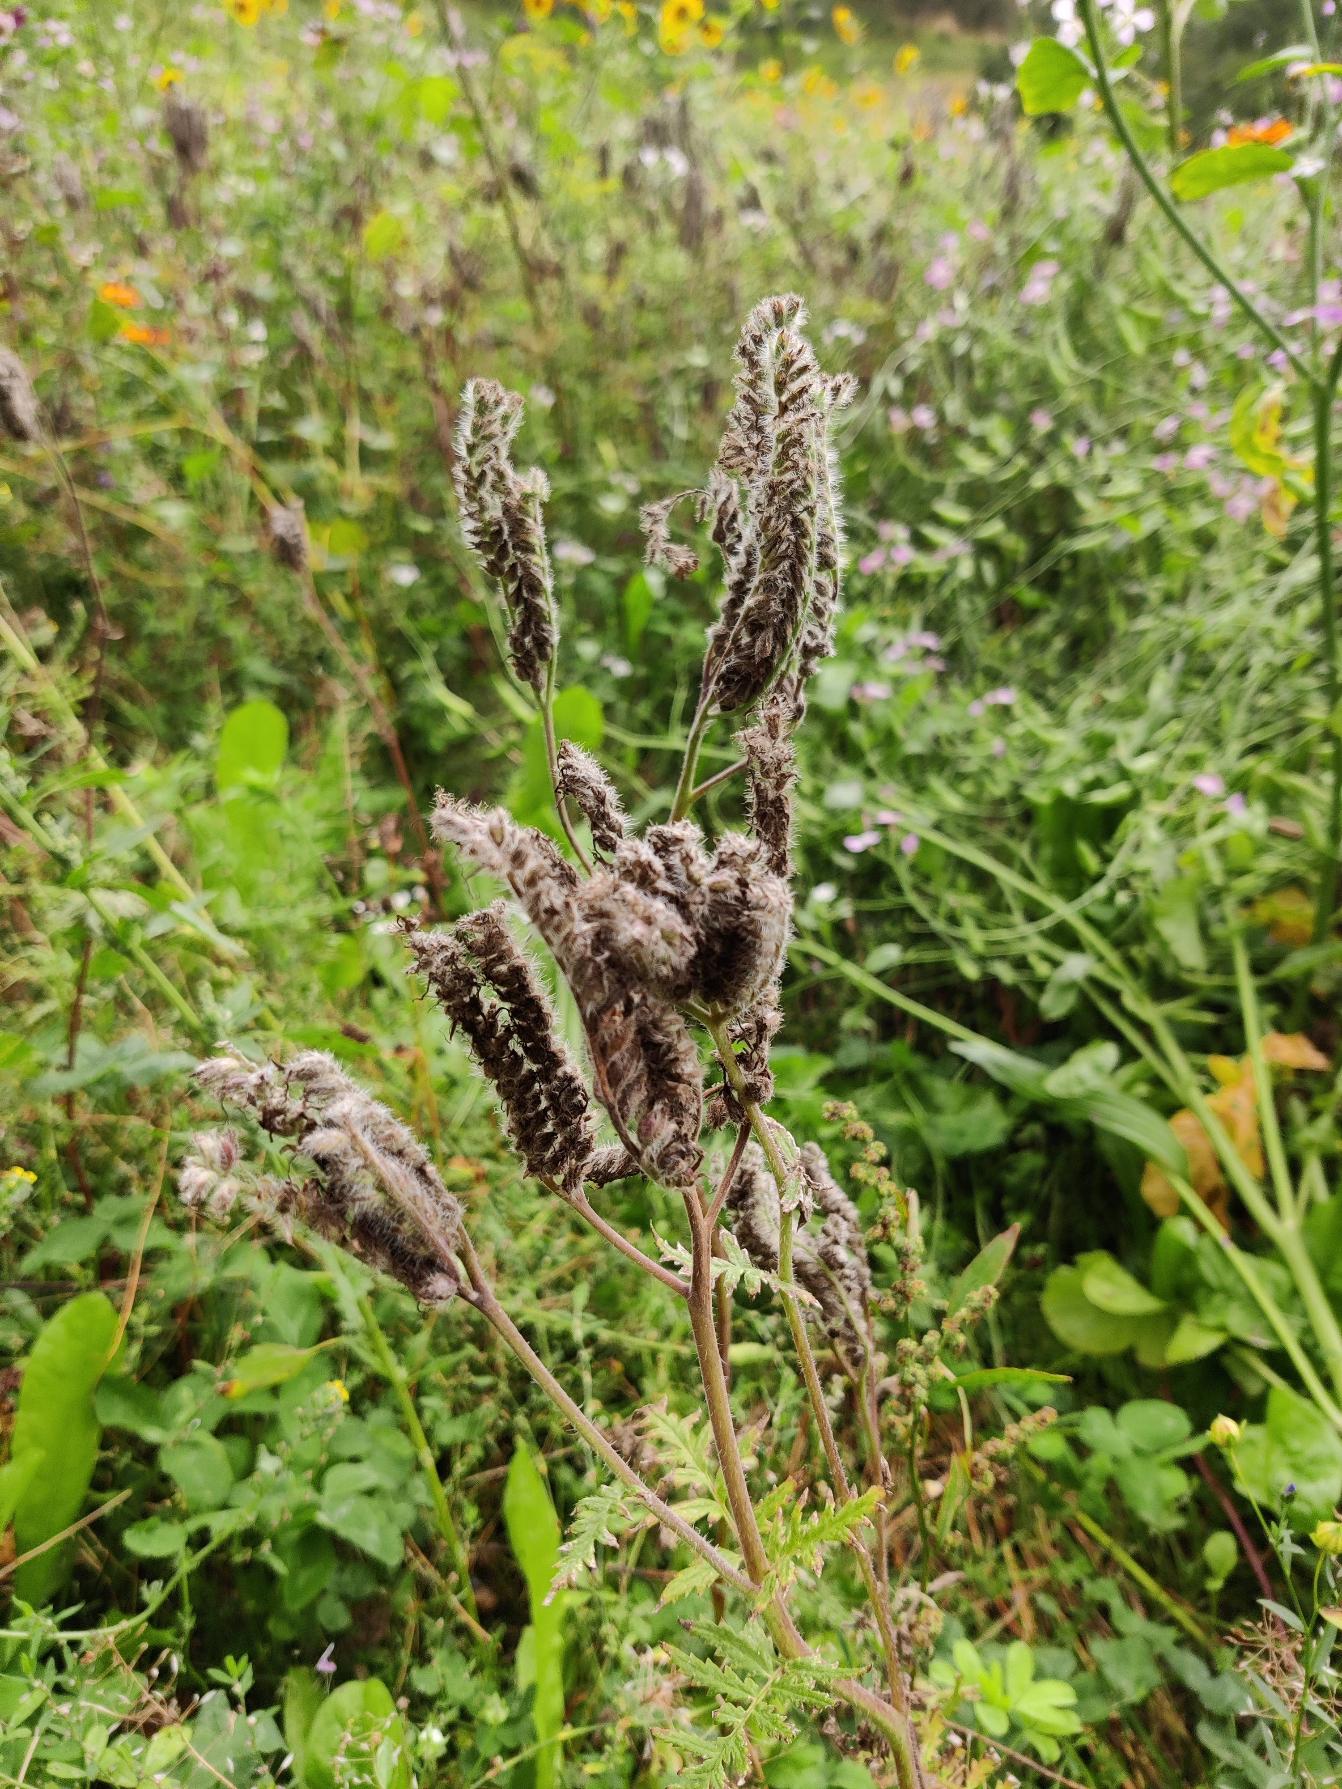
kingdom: Plantae
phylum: Tracheophyta
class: Magnoliopsida
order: Boraginales
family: Hydrophyllaceae
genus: Phacelia
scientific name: Phacelia tanacetifolia
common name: Honningurt
